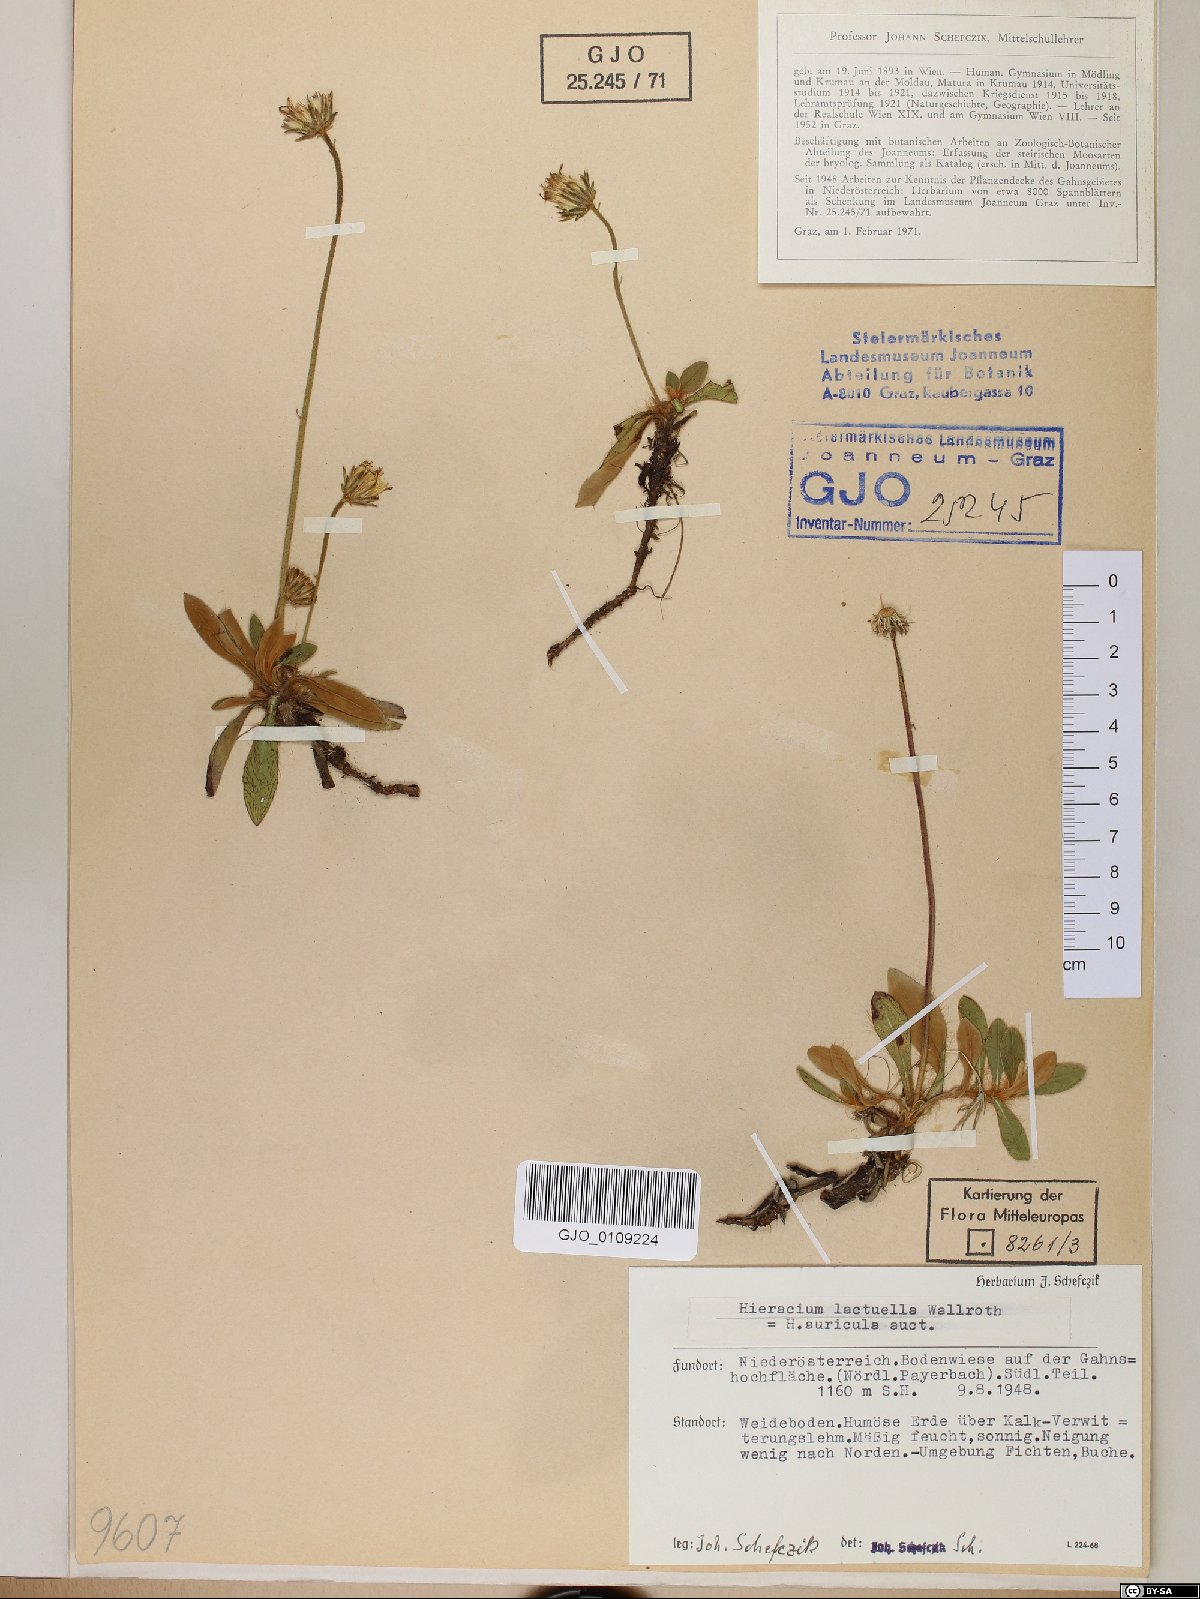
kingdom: Plantae
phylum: Tracheophyta
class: Magnoliopsida
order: Asterales
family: Asteraceae
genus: Pilosella
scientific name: Pilosella lactucella
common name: Glaucous fox-and-cubs
